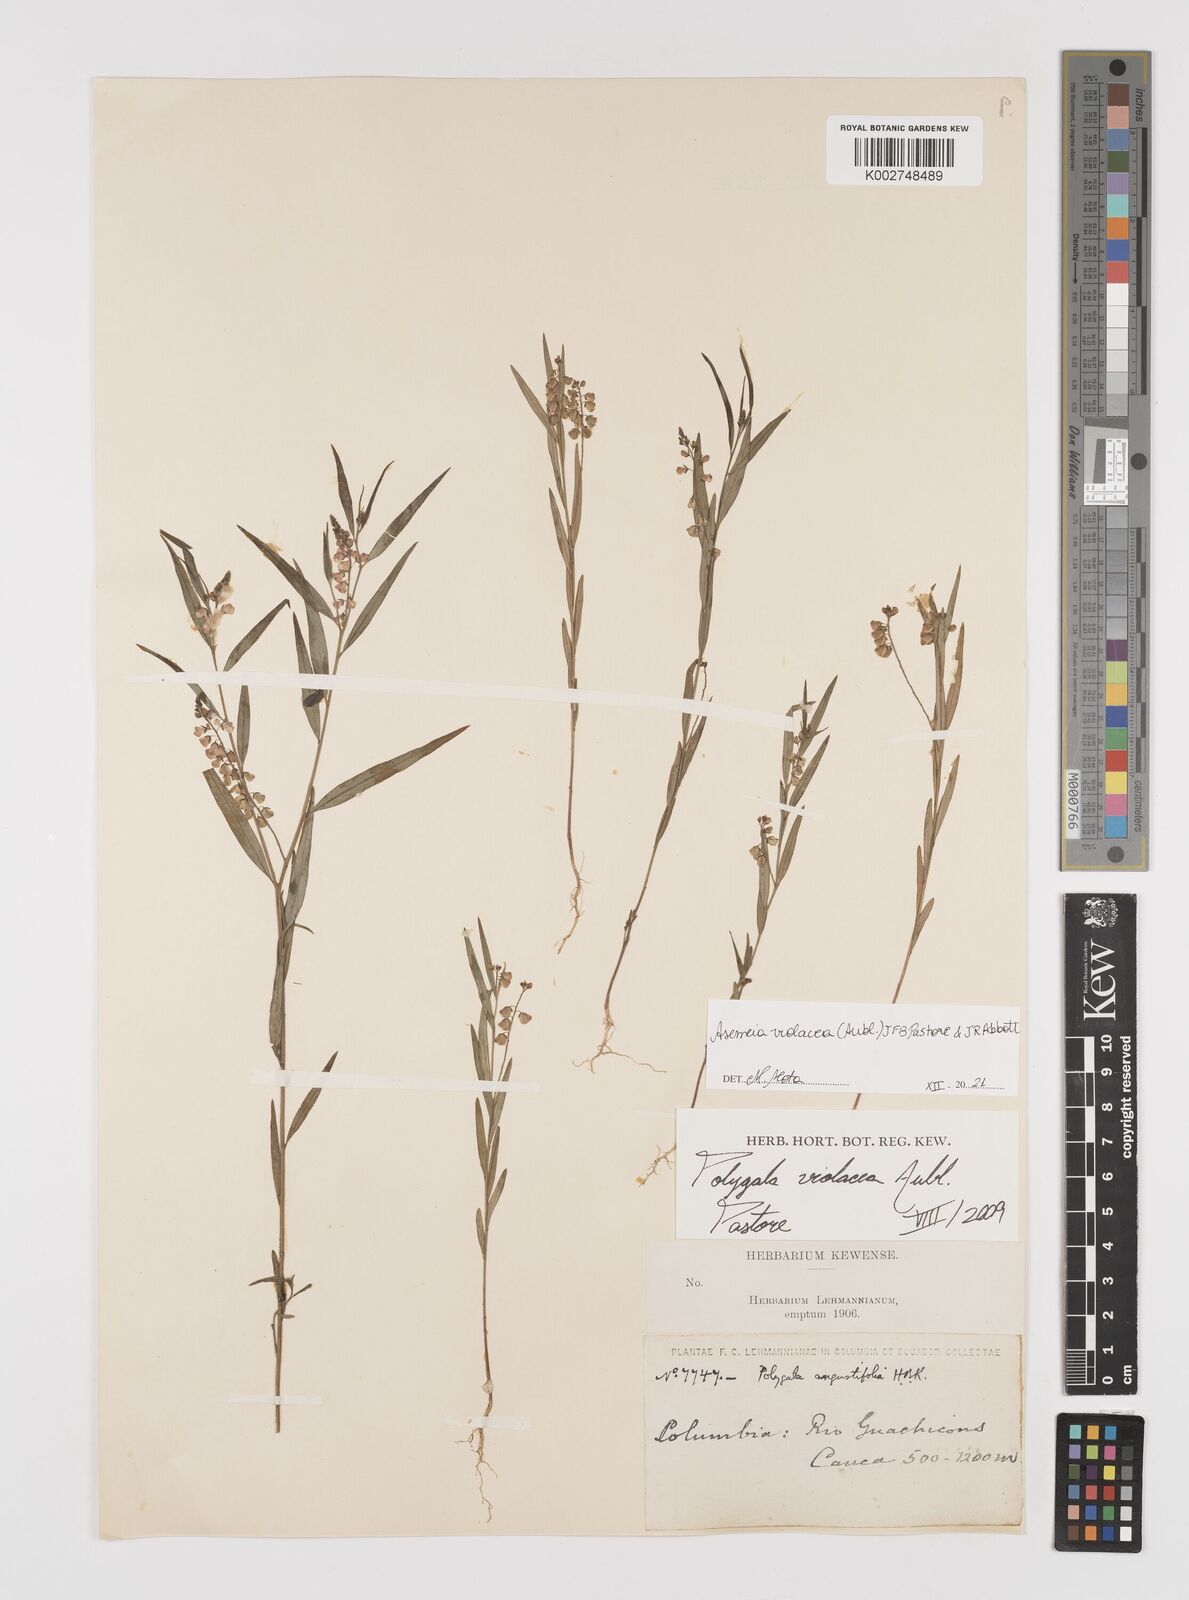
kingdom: Plantae
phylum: Tracheophyta
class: Magnoliopsida
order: Fabales
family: Polygalaceae
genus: Asemeia
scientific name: Asemeia violacea
